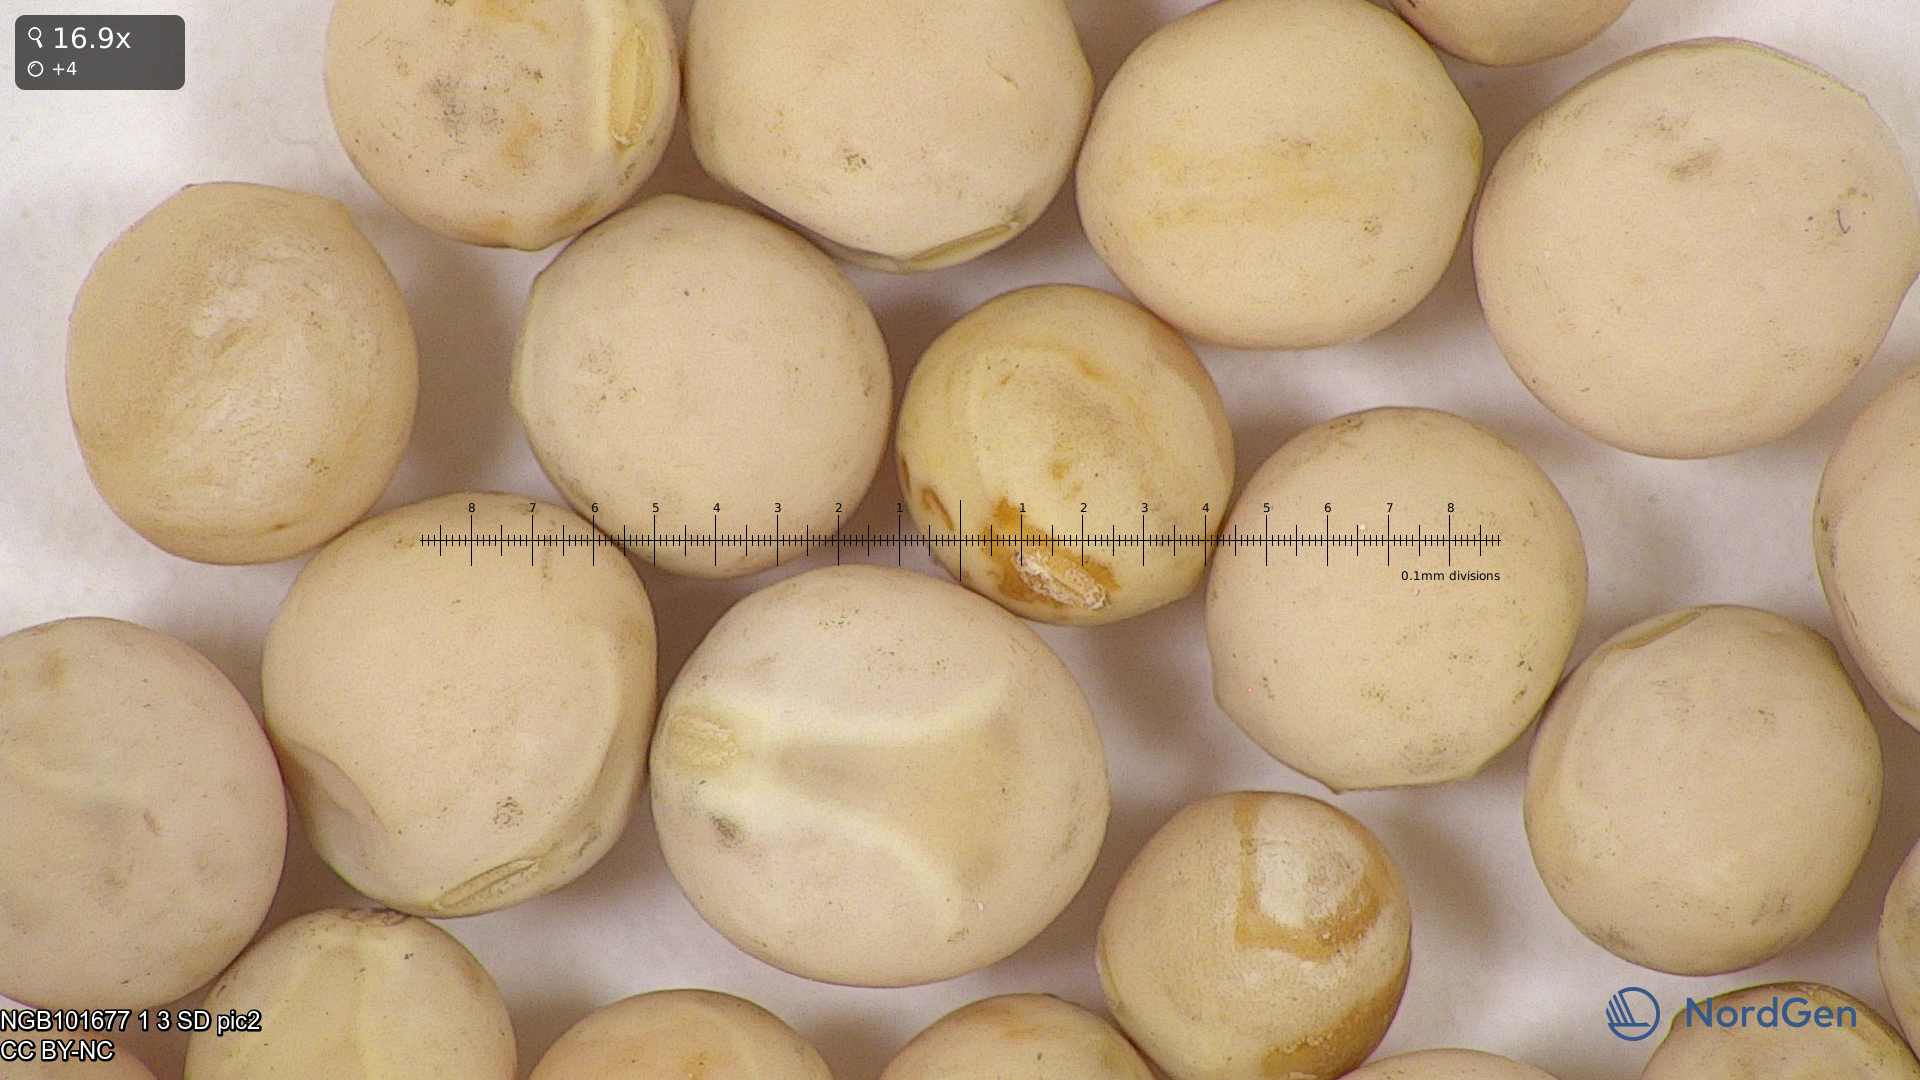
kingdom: Plantae
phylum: Tracheophyta
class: Magnoliopsida
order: Fabales
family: Fabaceae
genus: Lathyrus
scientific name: Lathyrus oleraceus
